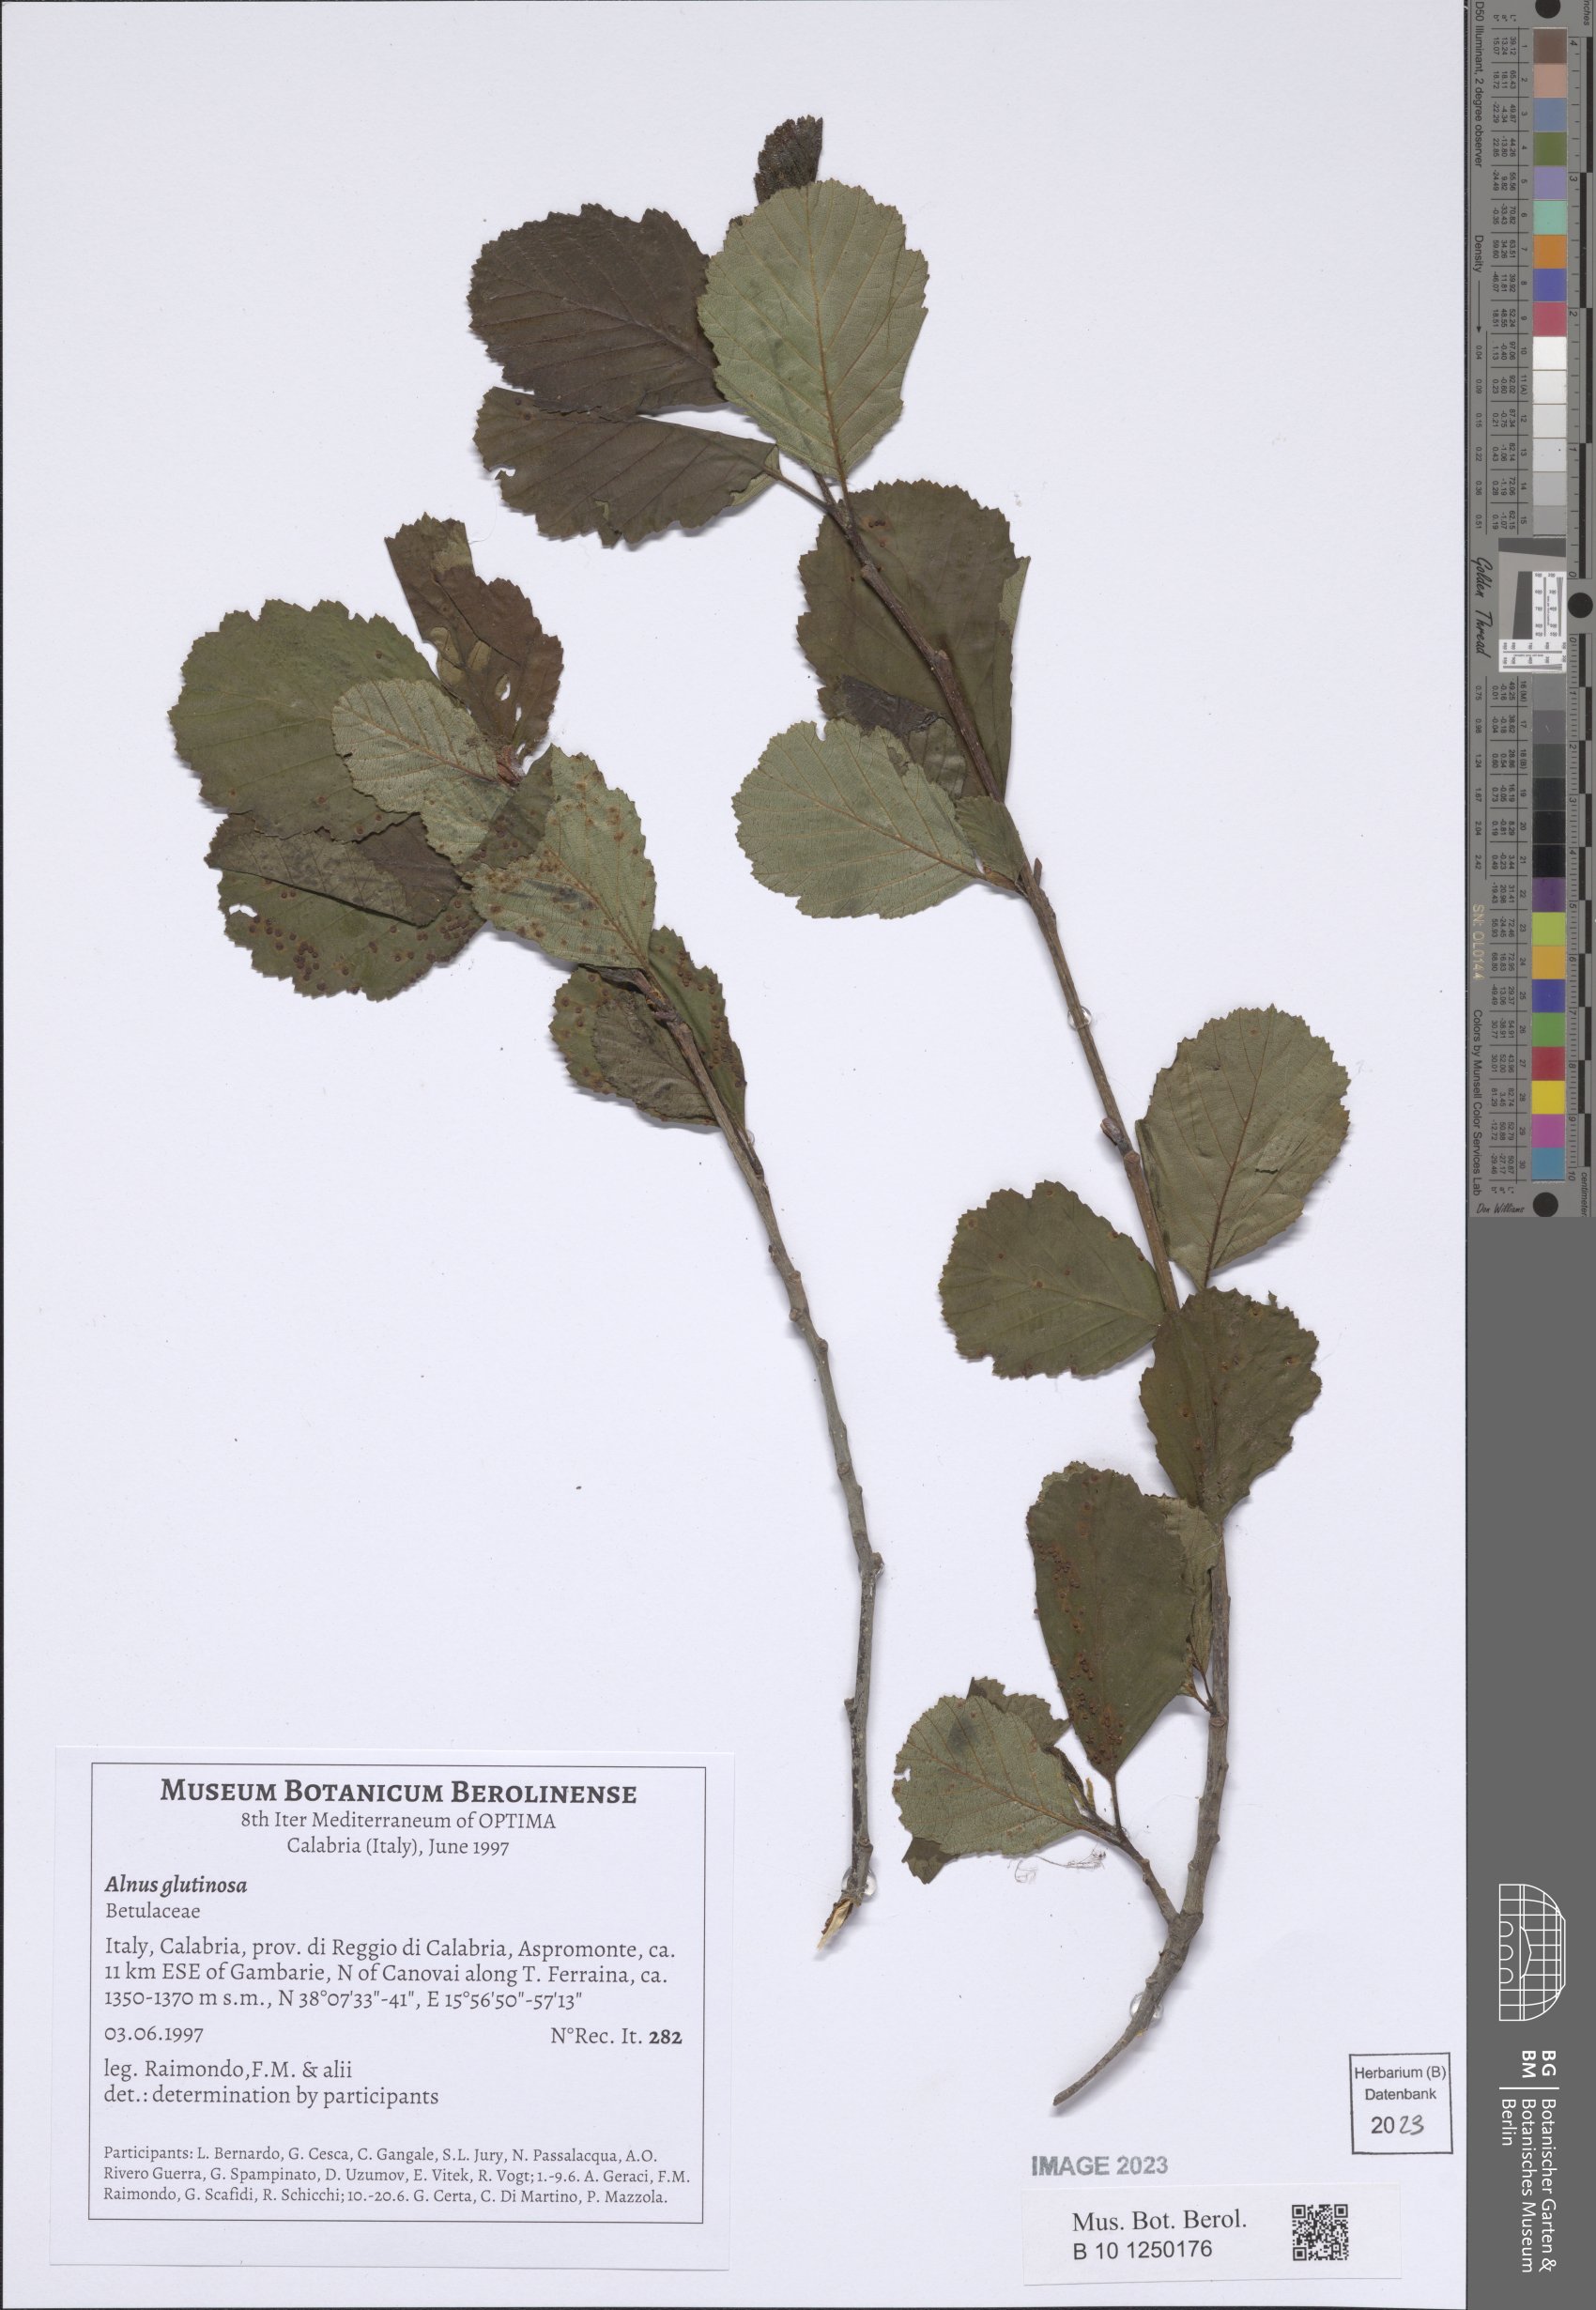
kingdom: Plantae
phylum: Tracheophyta
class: Magnoliopsida
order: Fagales
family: Betulaceae
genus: Alnus
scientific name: Alnus glutinosa
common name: Black alder
